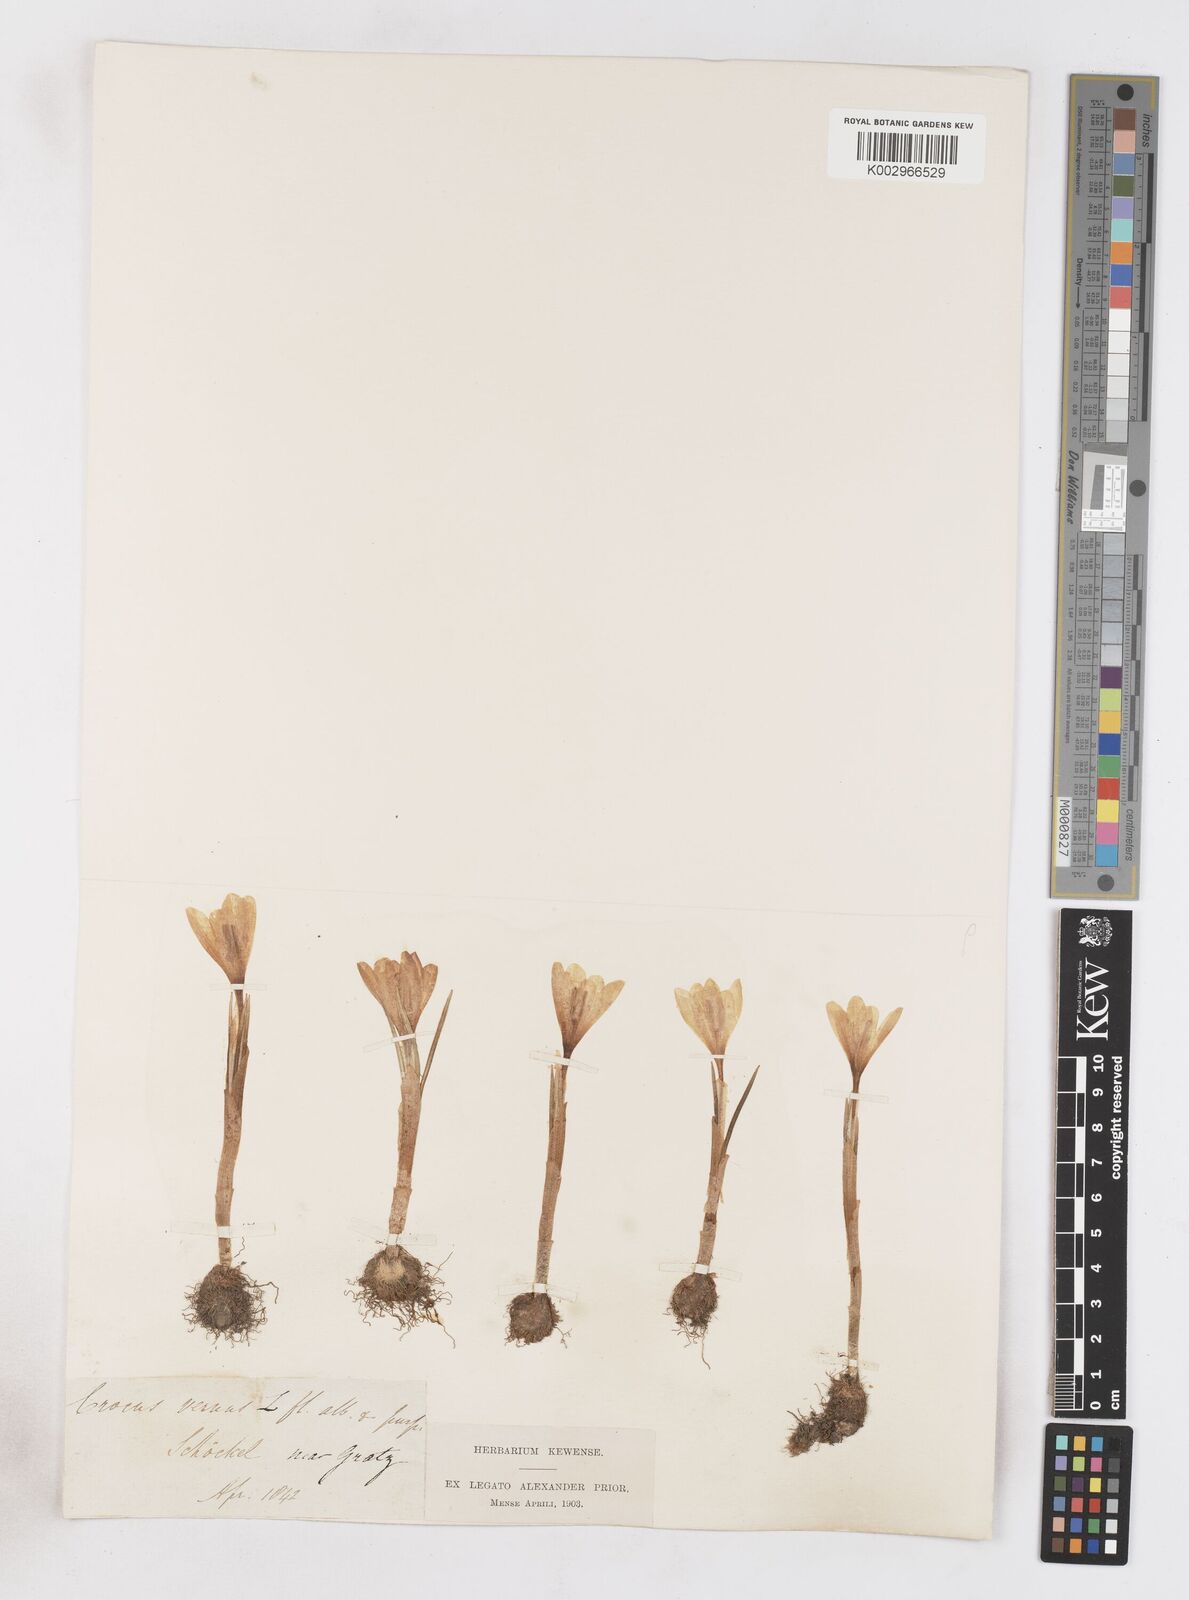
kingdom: Plantae
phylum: Tracheophyta
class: Liliopsida
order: Asparagales
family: Iridaceae
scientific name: Iridaceae
